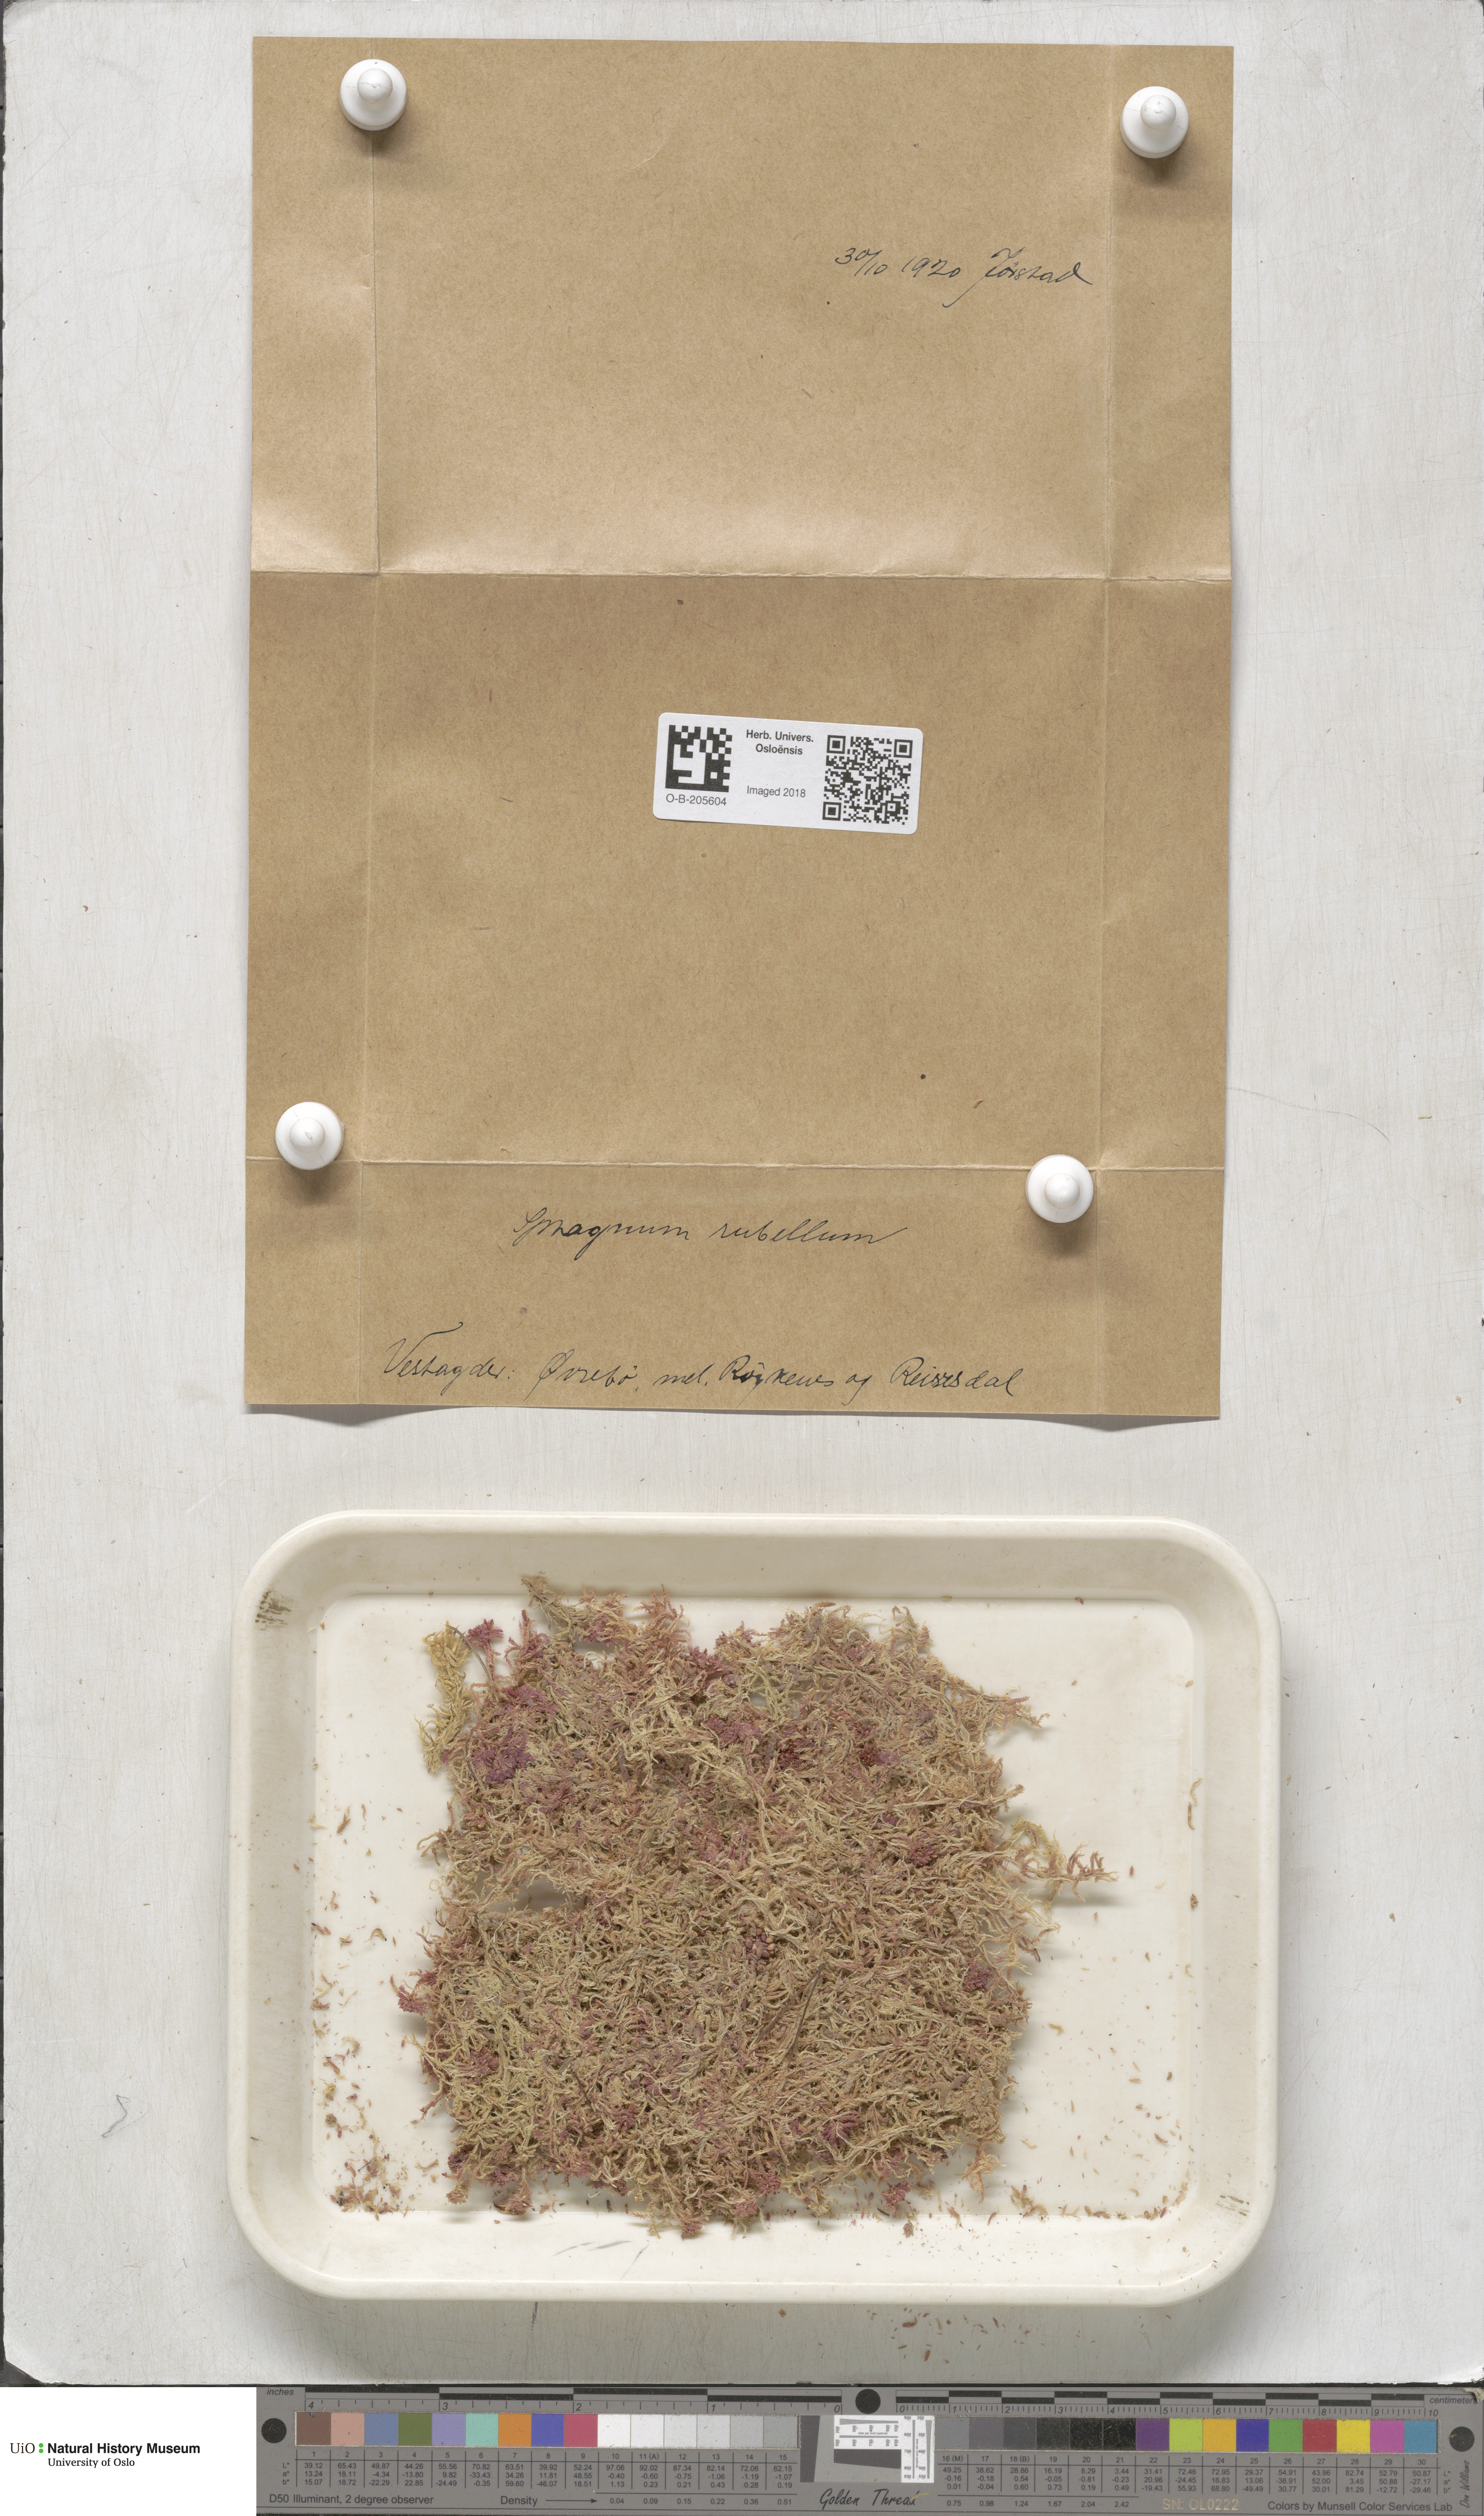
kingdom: Plantae
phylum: Bryophyta
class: Sphagnopsida
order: Sphagnales
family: Sphagnaceae
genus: Sphagnum
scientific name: Sphagnum rubellum
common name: Red peat moss
